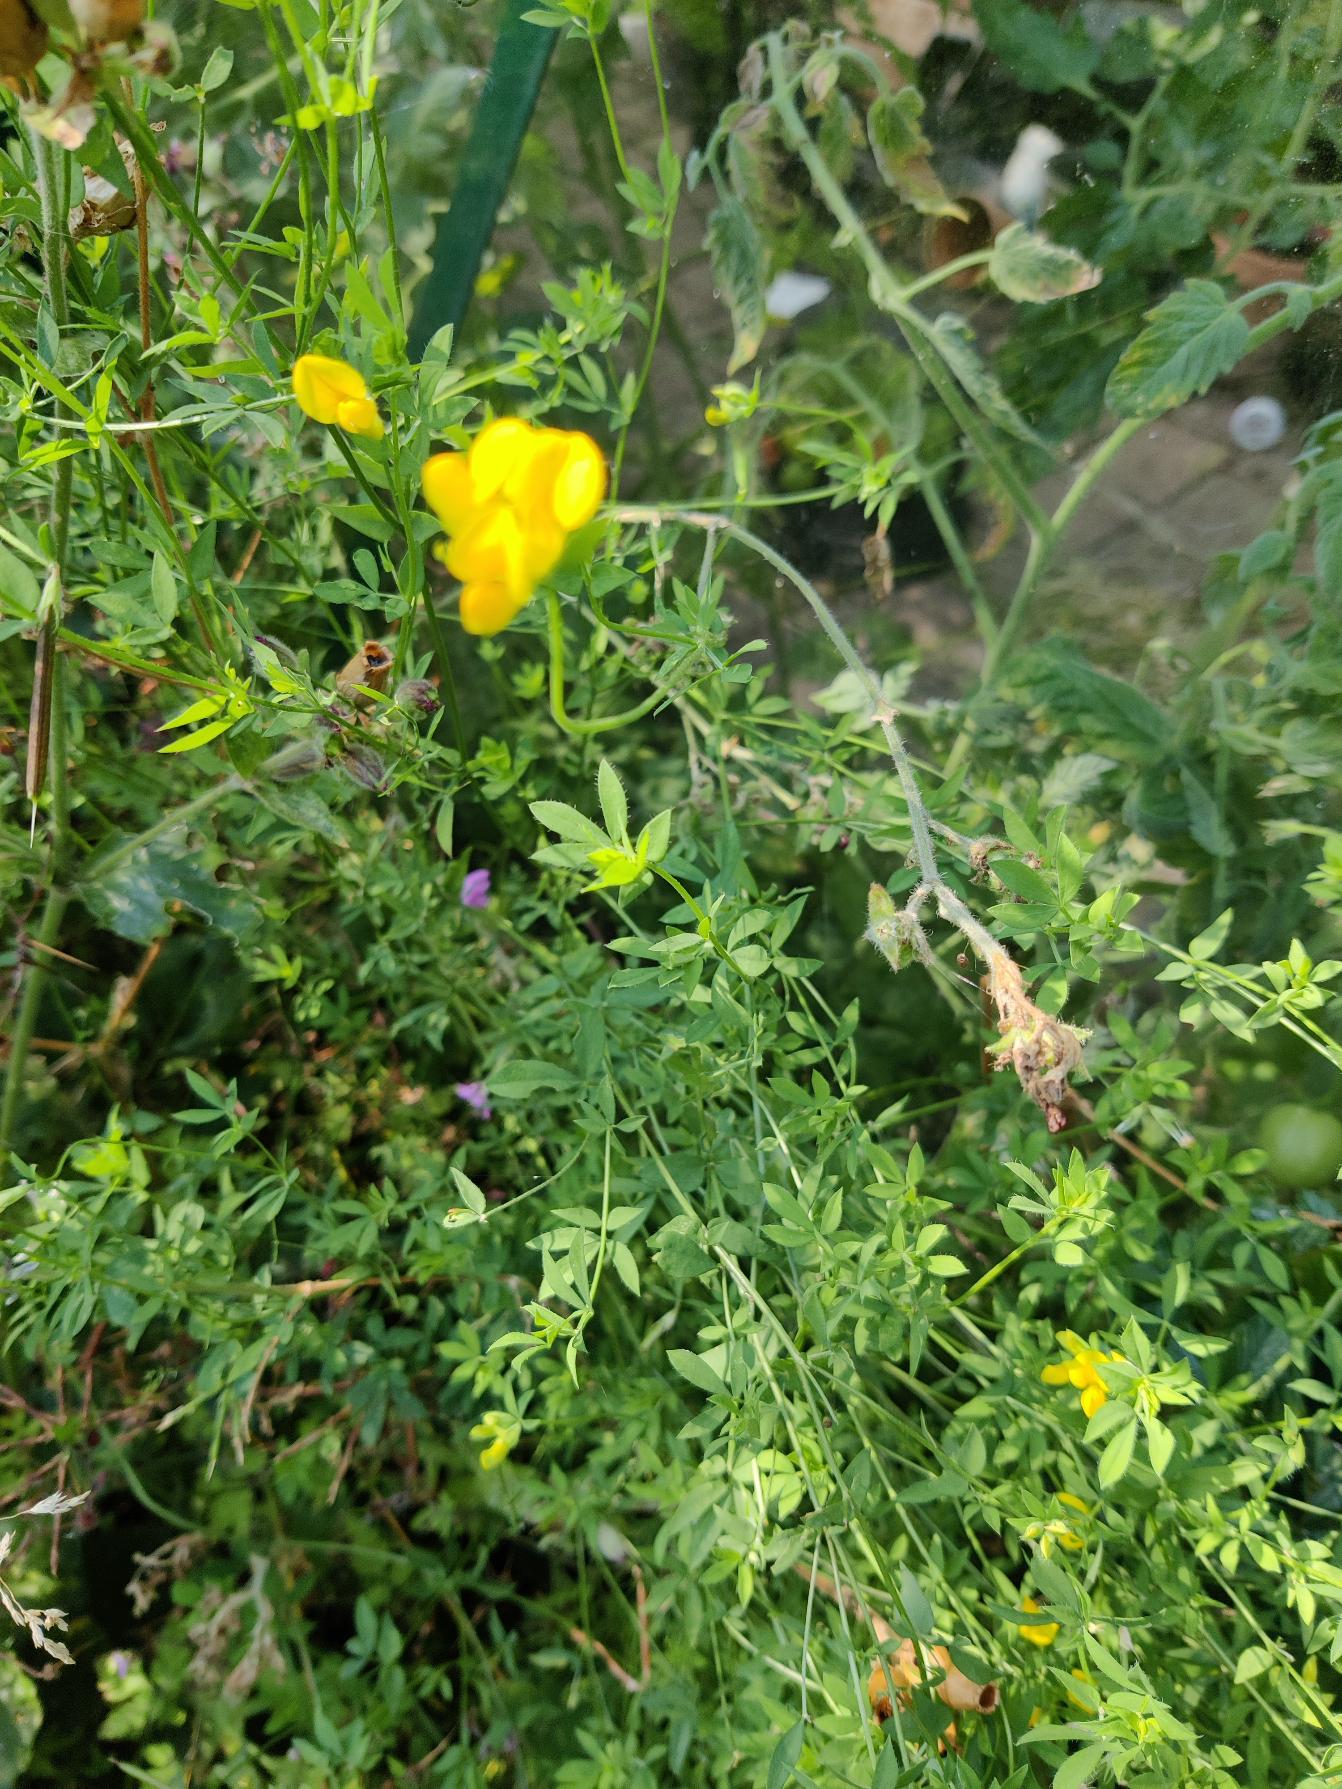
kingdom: Plantae
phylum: Tracheophyta
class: Magnoliopsida
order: Fabales
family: Fabaceae
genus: Lotus
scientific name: Lotus corniculatus
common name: Almindelig kællingetand
